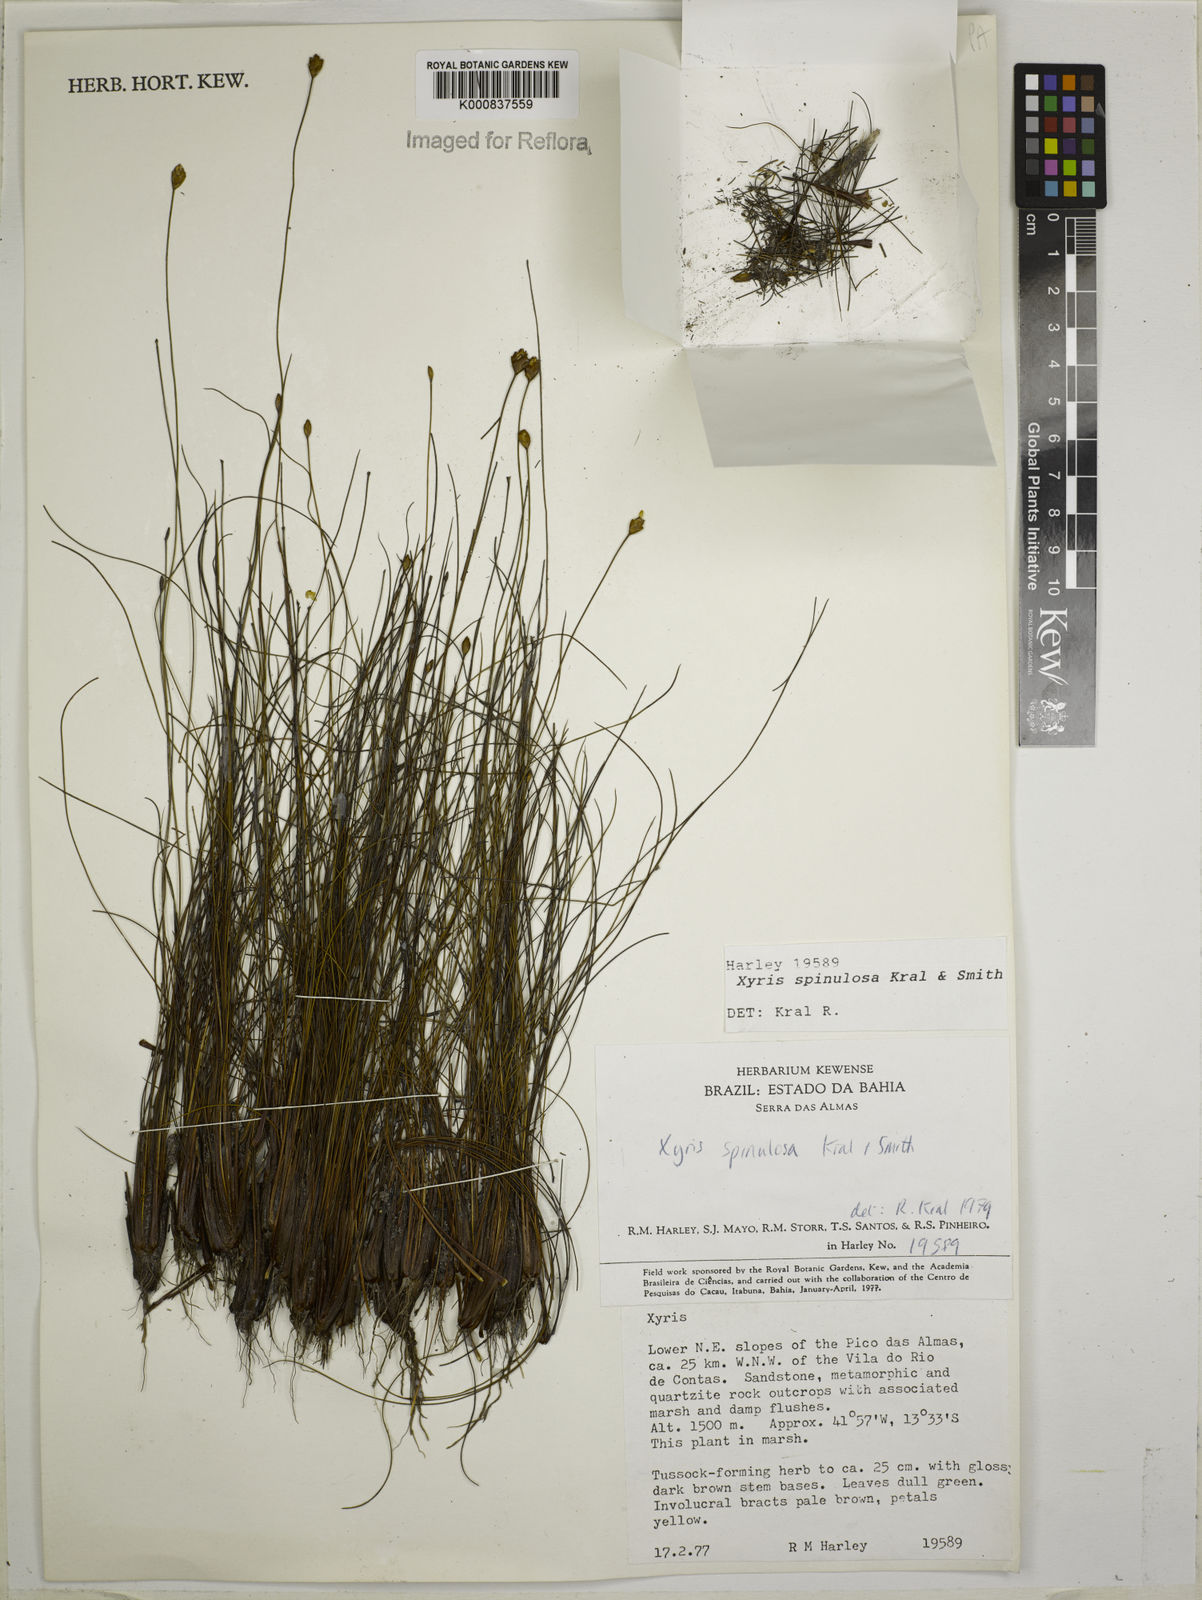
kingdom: Plantae
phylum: Tracheophyta
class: Liliopsida
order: Poales
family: Xyridaceae
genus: Xyris
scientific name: Xyris spinulosa
